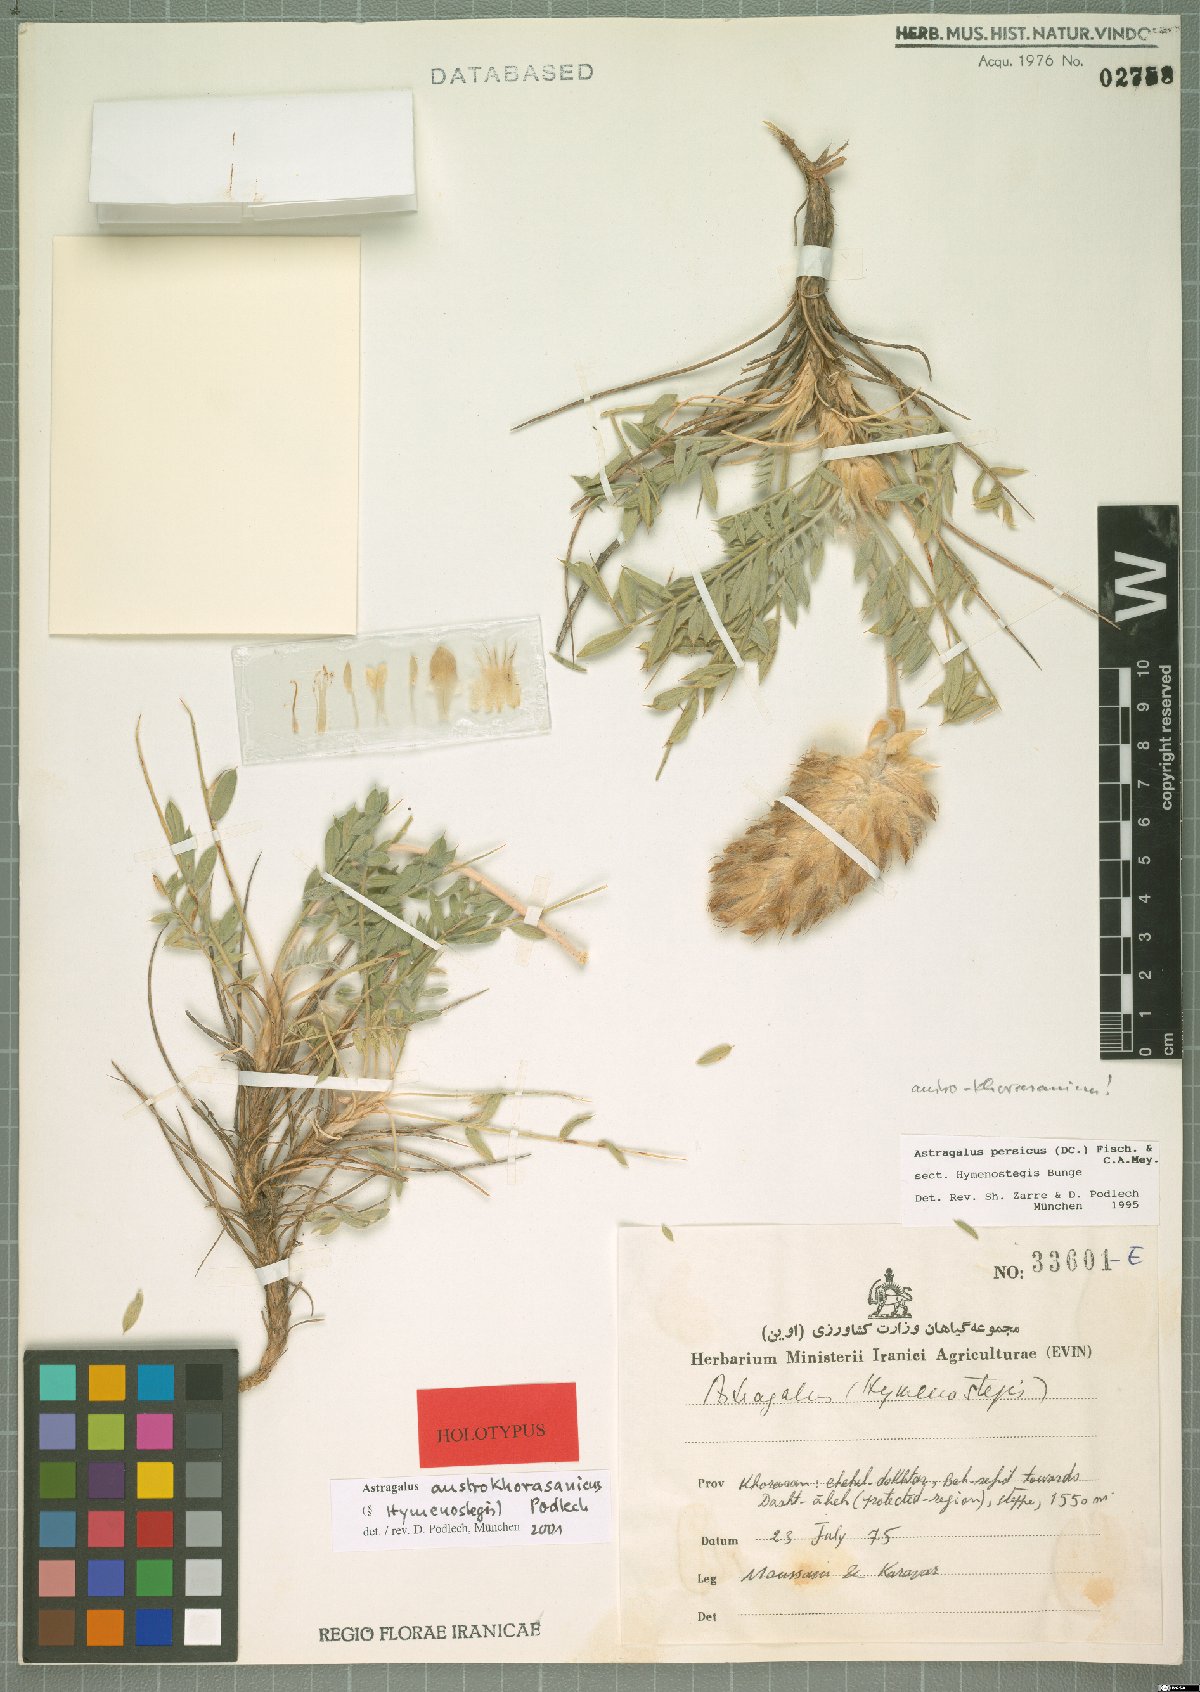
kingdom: Plantae
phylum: Tracheophyta
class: Magnoliopsida
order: Fabales
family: Fabaceae
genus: Astragalus
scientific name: Astragalus austrokhorasanicus
